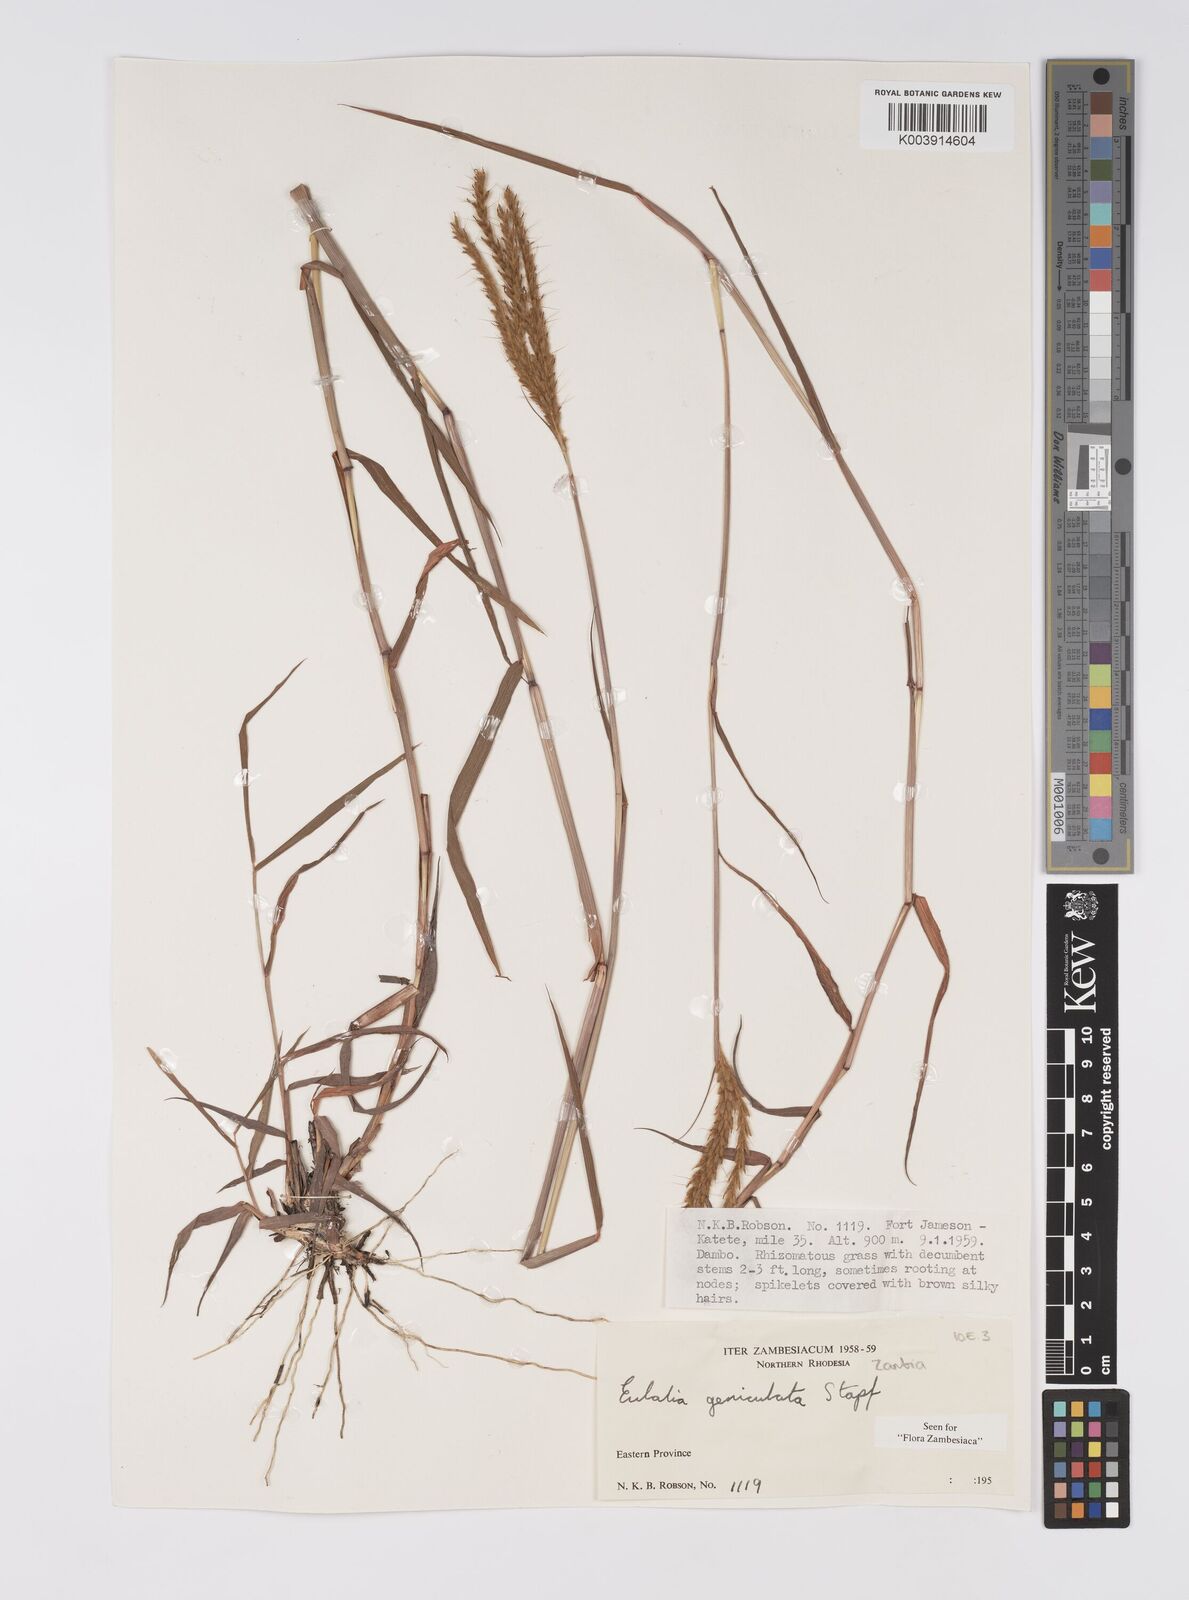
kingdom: Plantae
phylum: Tracheophyta
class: Liliopsida
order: Poales
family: Poaceae
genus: Eulalia
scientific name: Eulalia aurea
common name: Silky browntop
